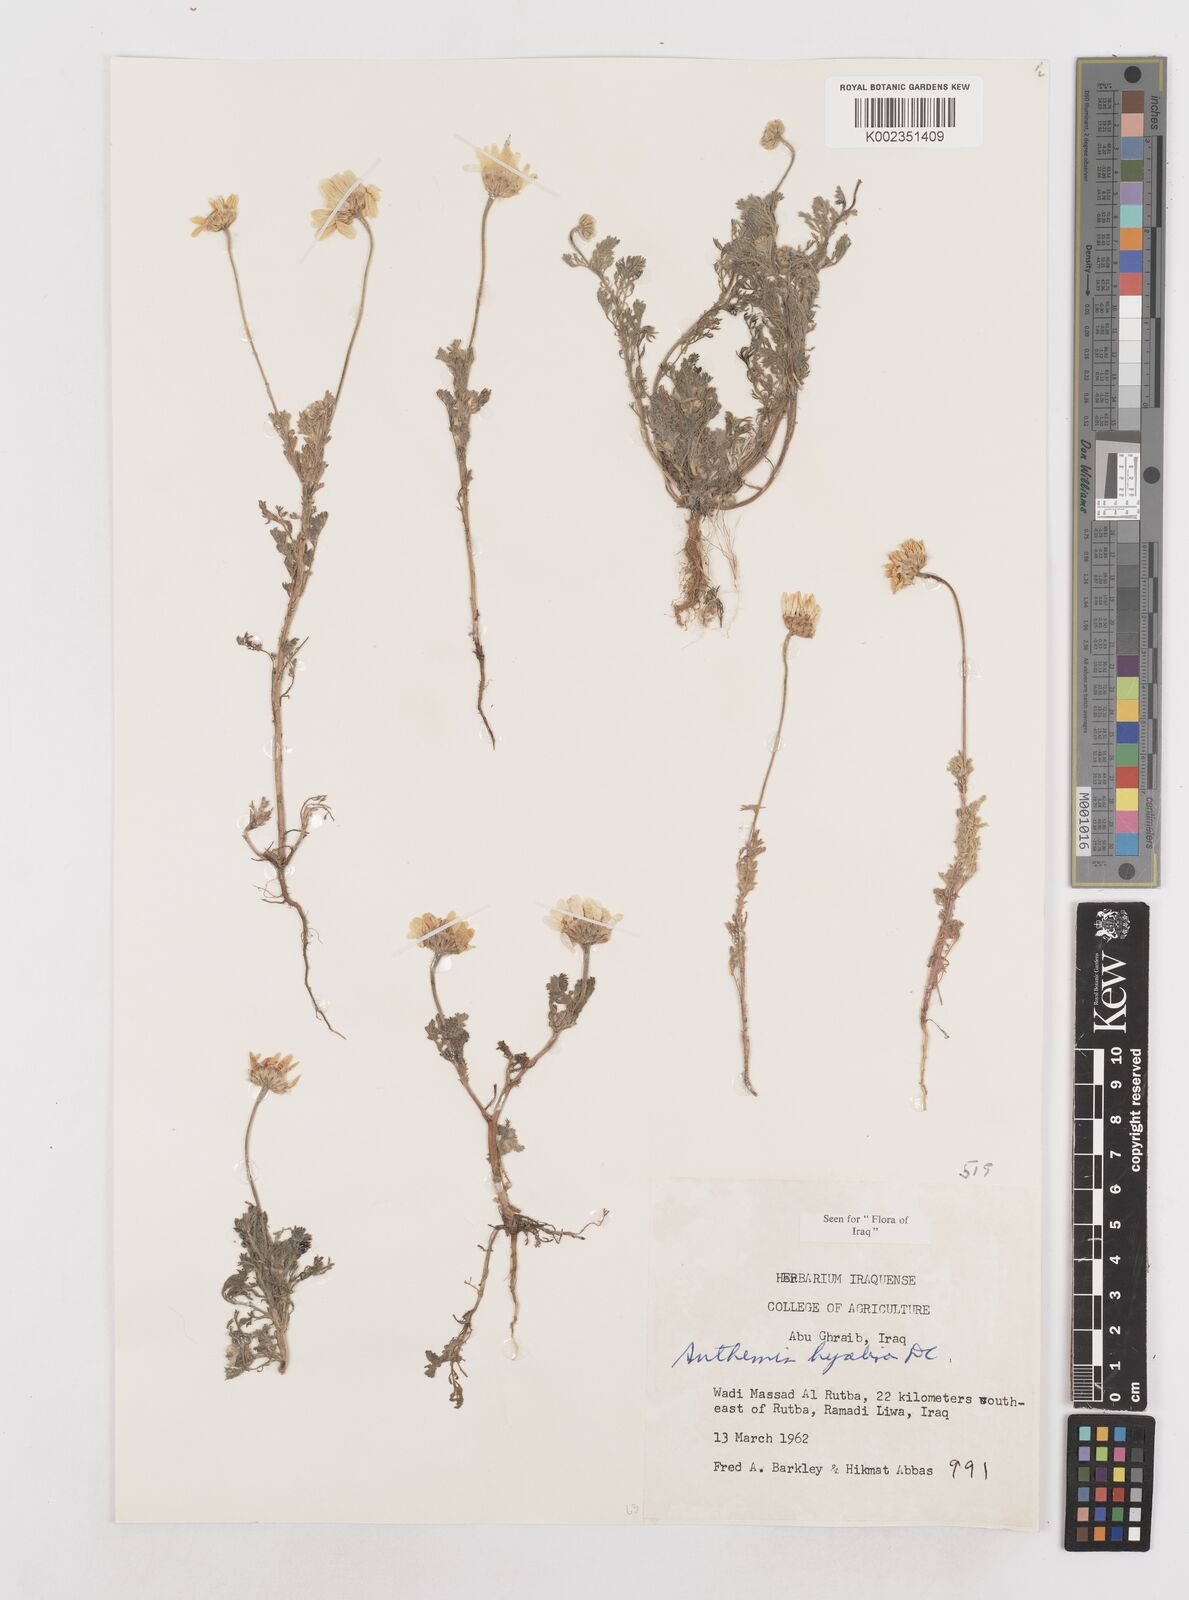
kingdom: Plantae
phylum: Tracheophyta
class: Magnoliopsida
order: Asterales
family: Asteraceae
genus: Anthemis
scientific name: Anthemis hyalina
